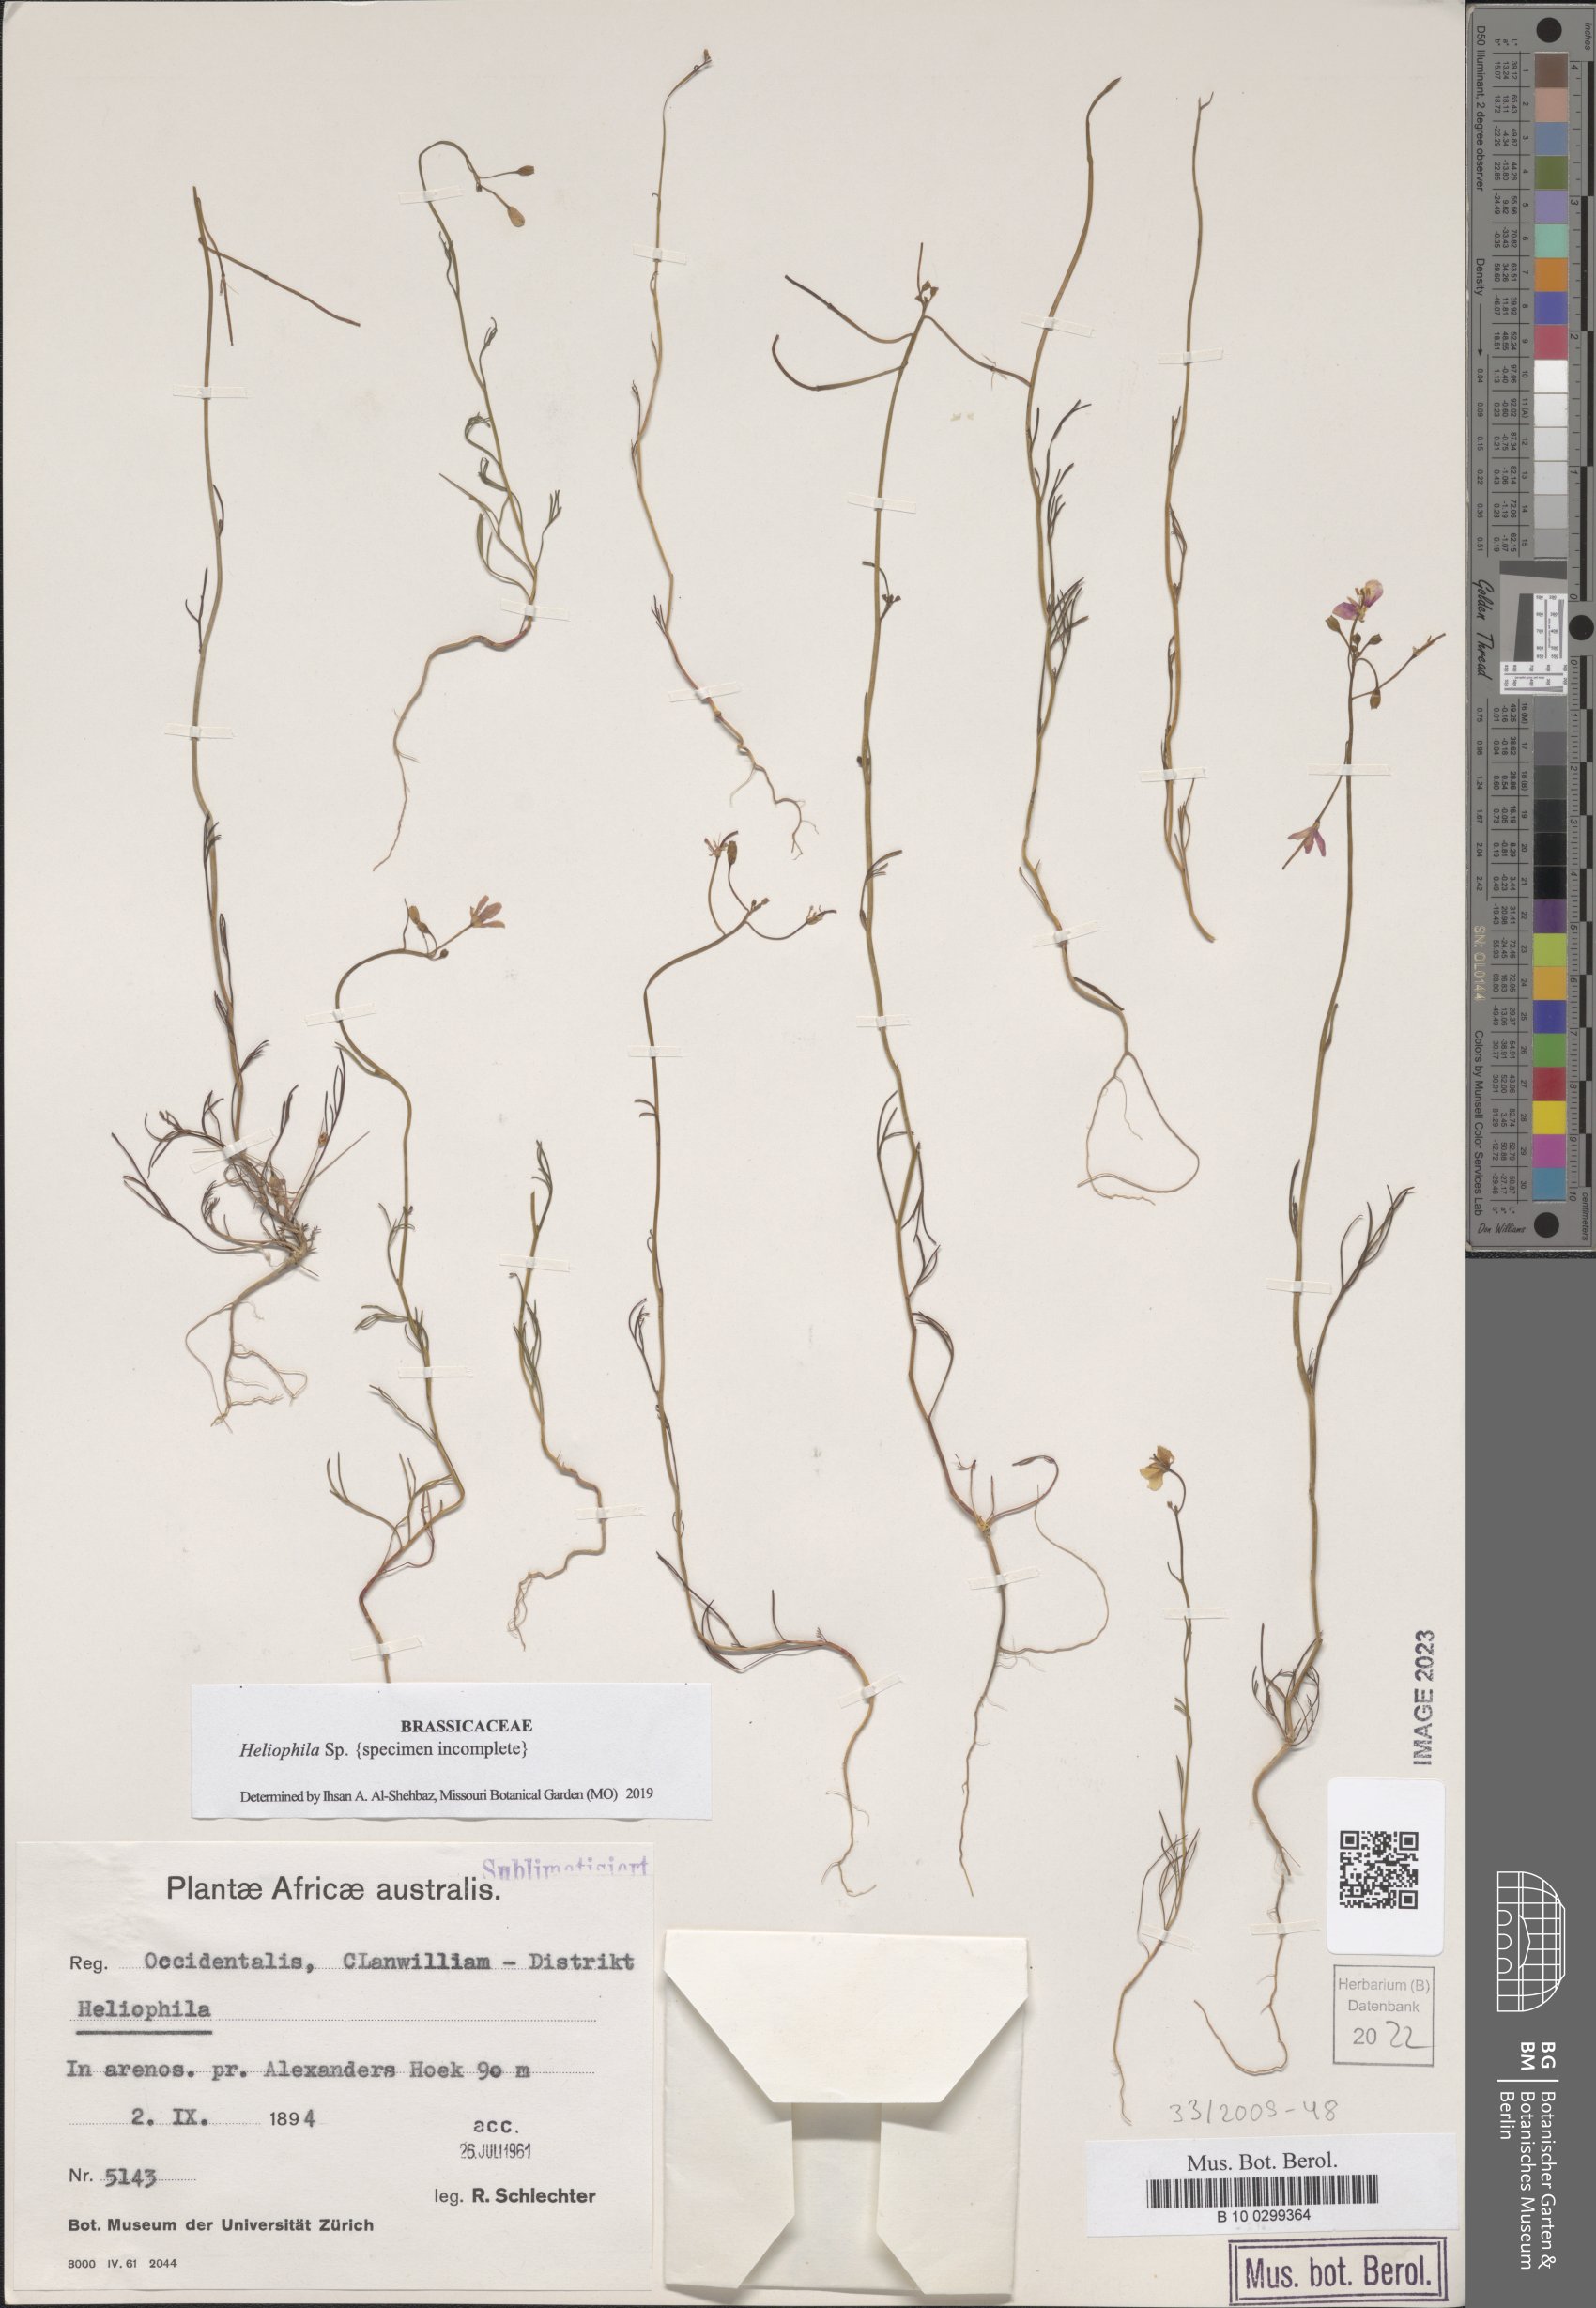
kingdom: Plantae
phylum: Tracheophyta
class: Magnoliopsida
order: Brassicales
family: Brassicaceae
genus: Heliophila
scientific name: Heliophila
